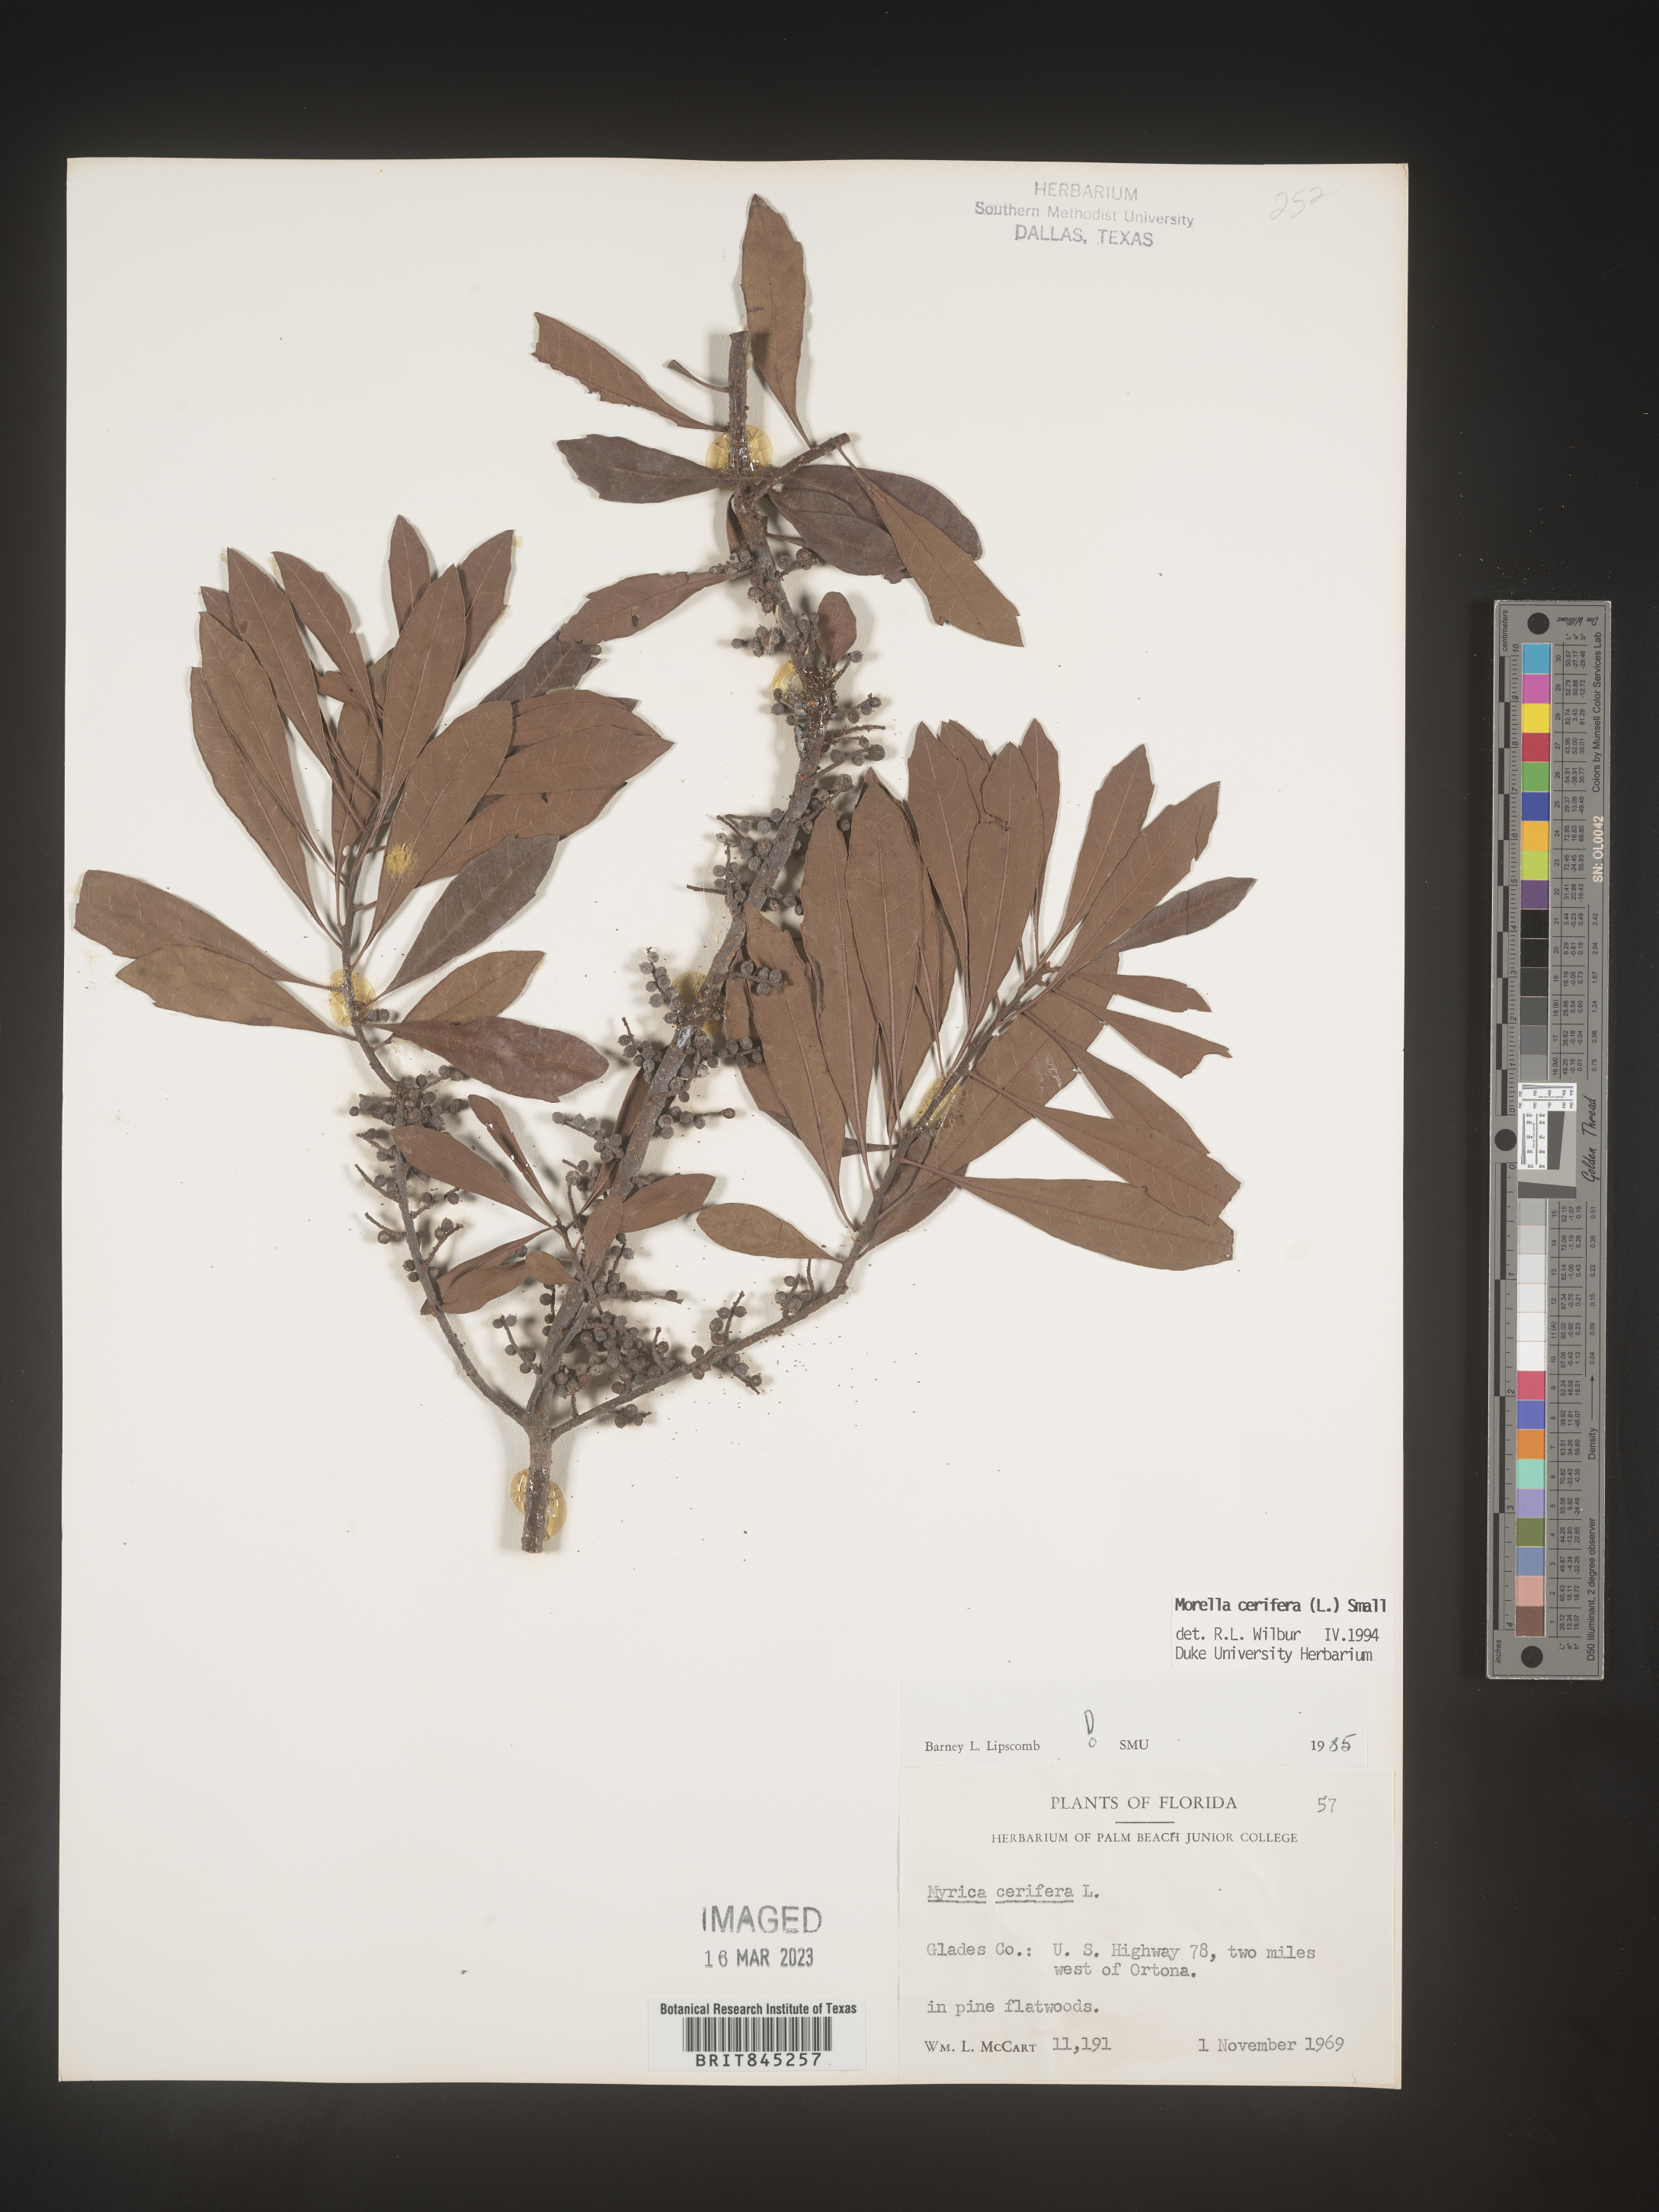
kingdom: Plantae
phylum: Tracheophyta
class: Magnoliopsida
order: Fagales
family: Myricaceae
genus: Morella
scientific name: Morella cerifera
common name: Wax myrtle
